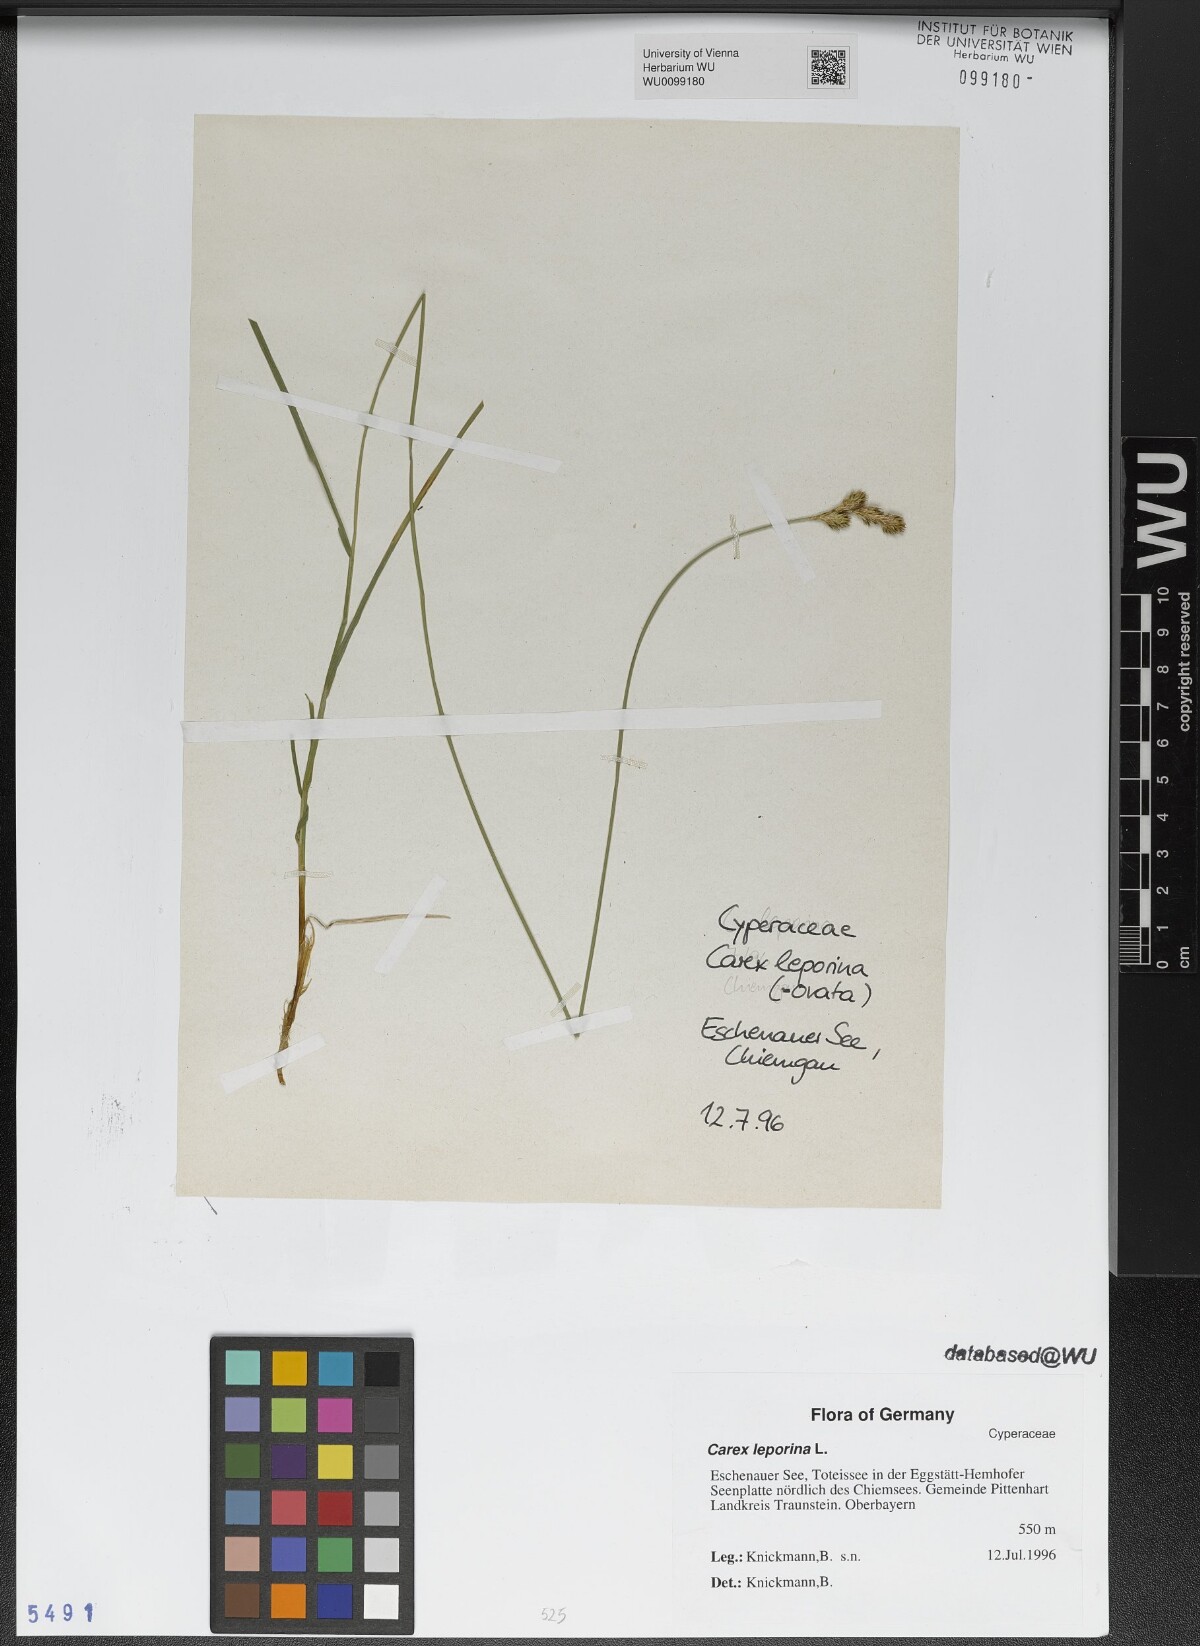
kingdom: Plantae
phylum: Tracheophyta
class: Liliopsida
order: Poales
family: Cyperaceae
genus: Carex
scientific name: Carex leporina
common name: Oval sedge
